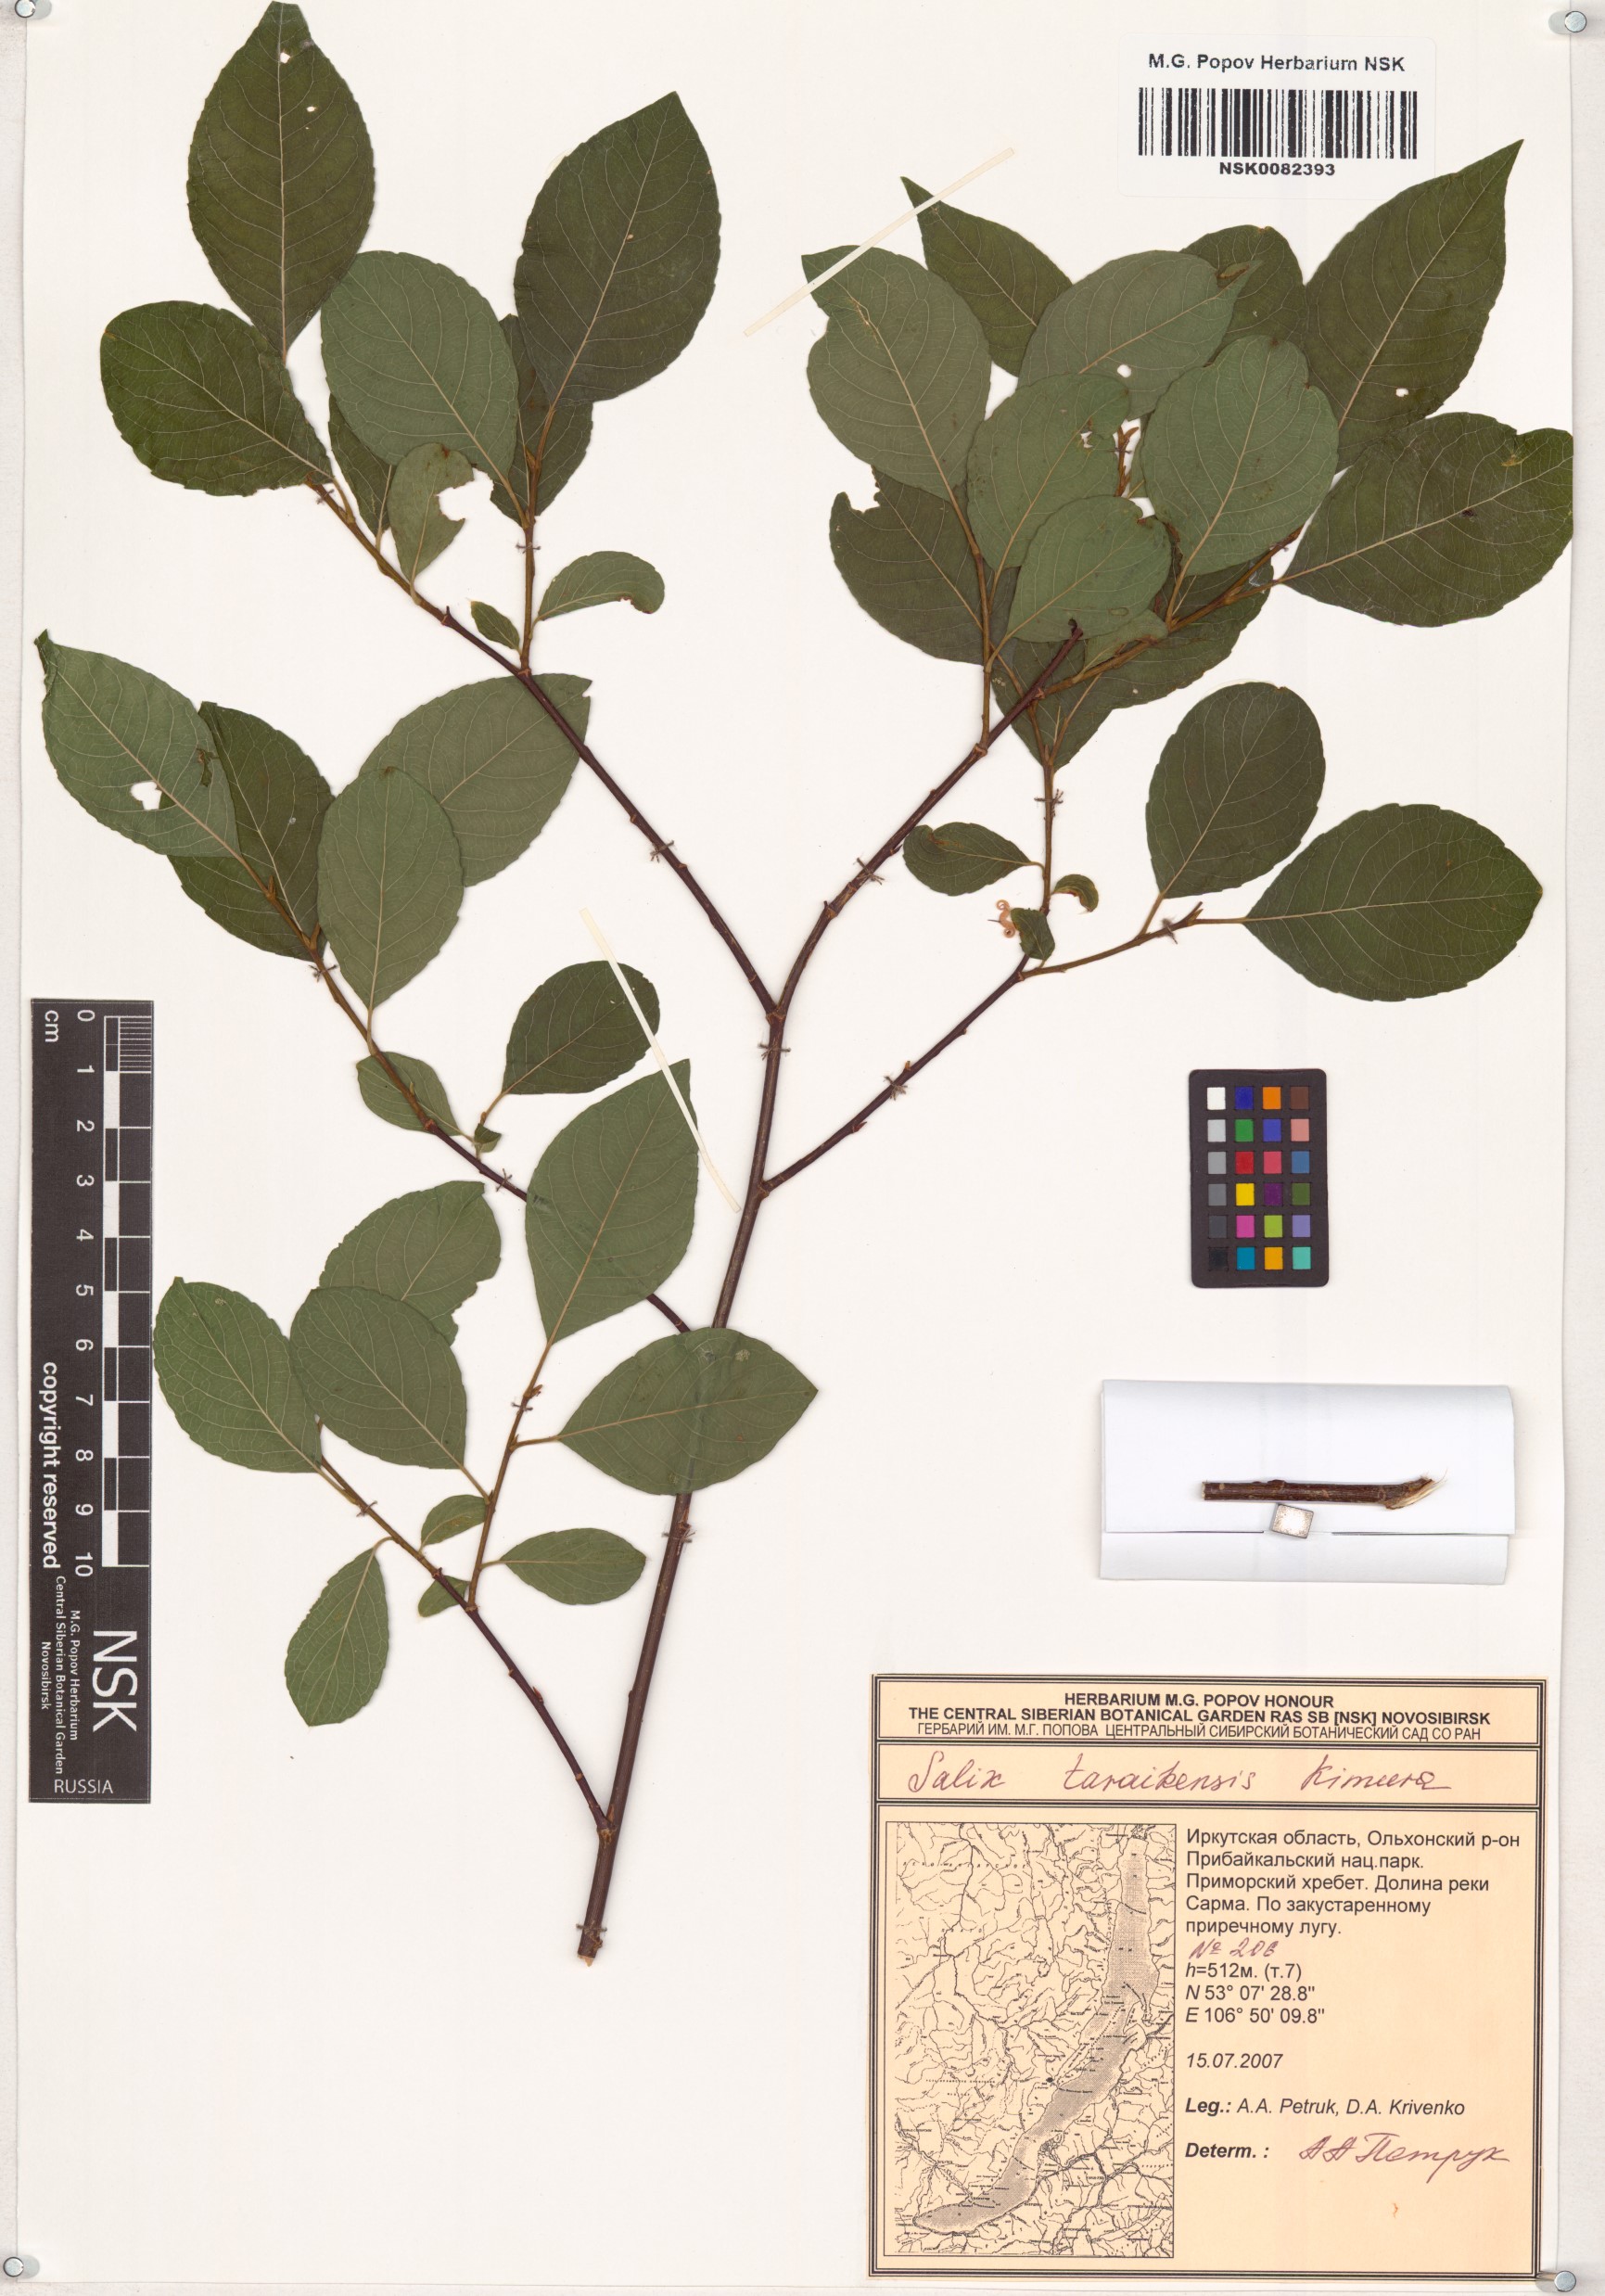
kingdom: Plantae
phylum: Tracheophyta
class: Magnoliopsida
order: Malpighiales
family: Salicaceae
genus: Salix
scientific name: Salix taraikensis
